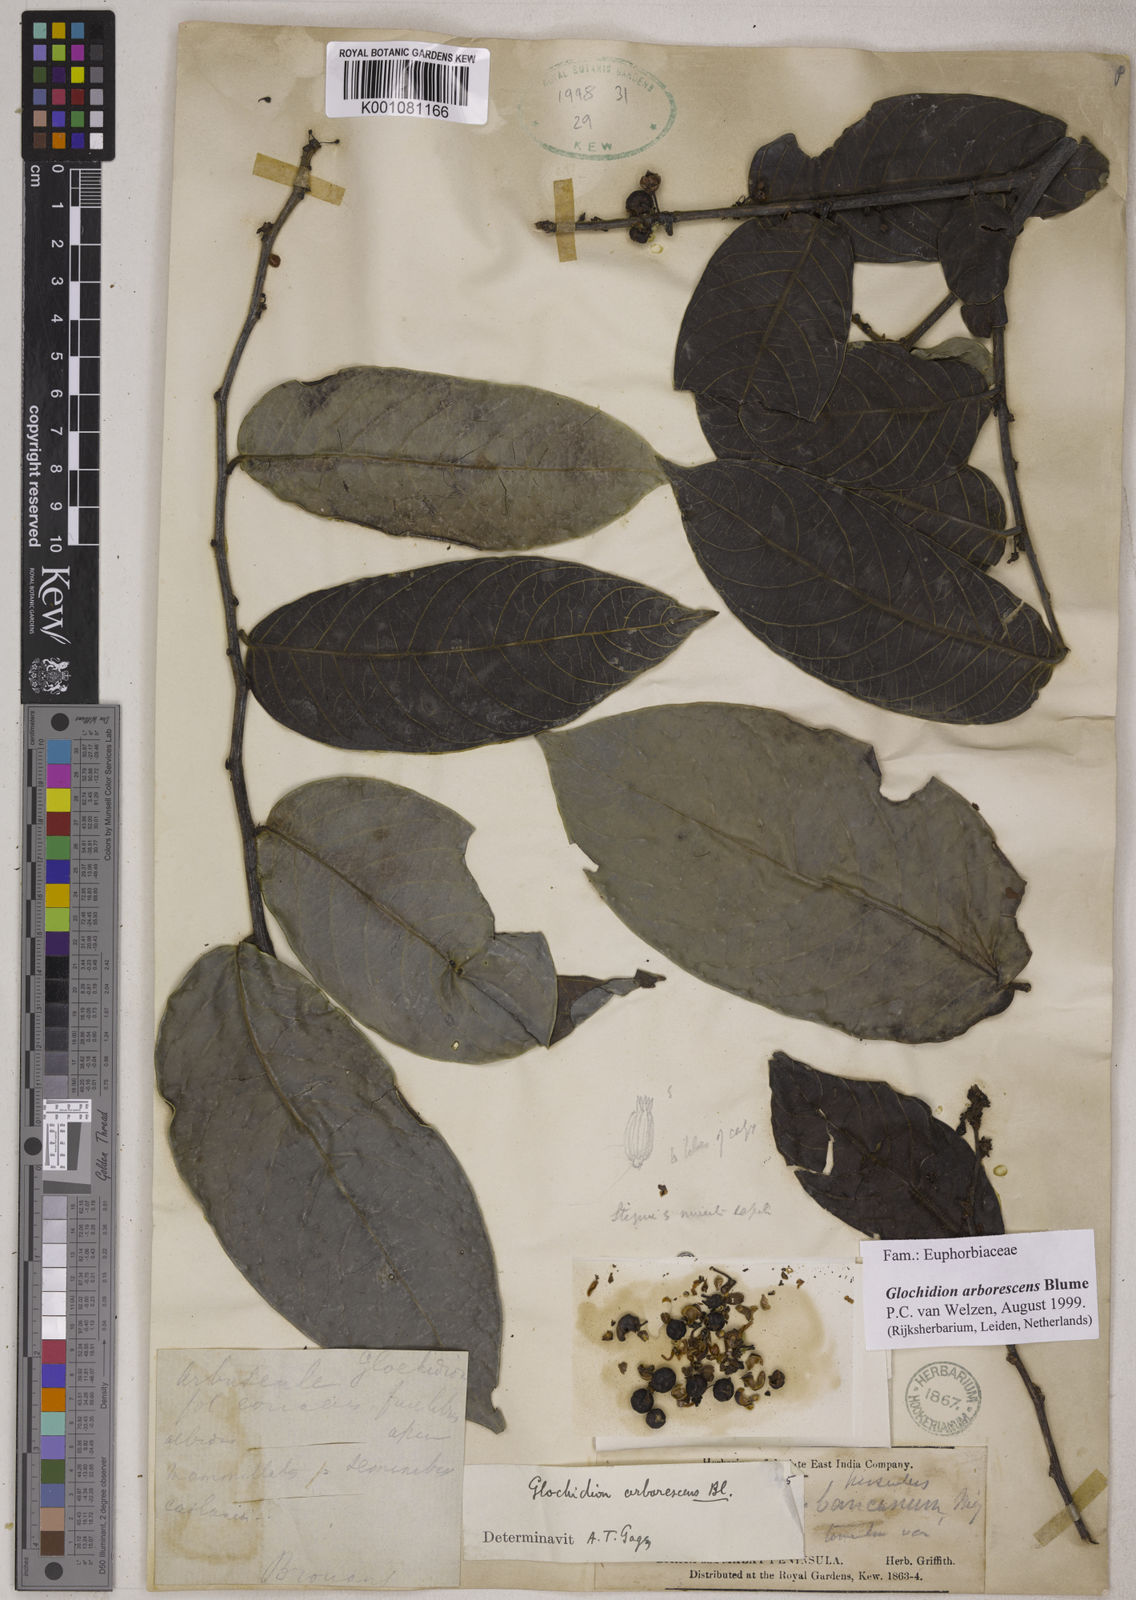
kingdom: Plantae
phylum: Tracheophyta
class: Magnoliopsida
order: Malpighiales
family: Phyllanthaceae
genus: Glochidion
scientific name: Glochidion zeylanicum
